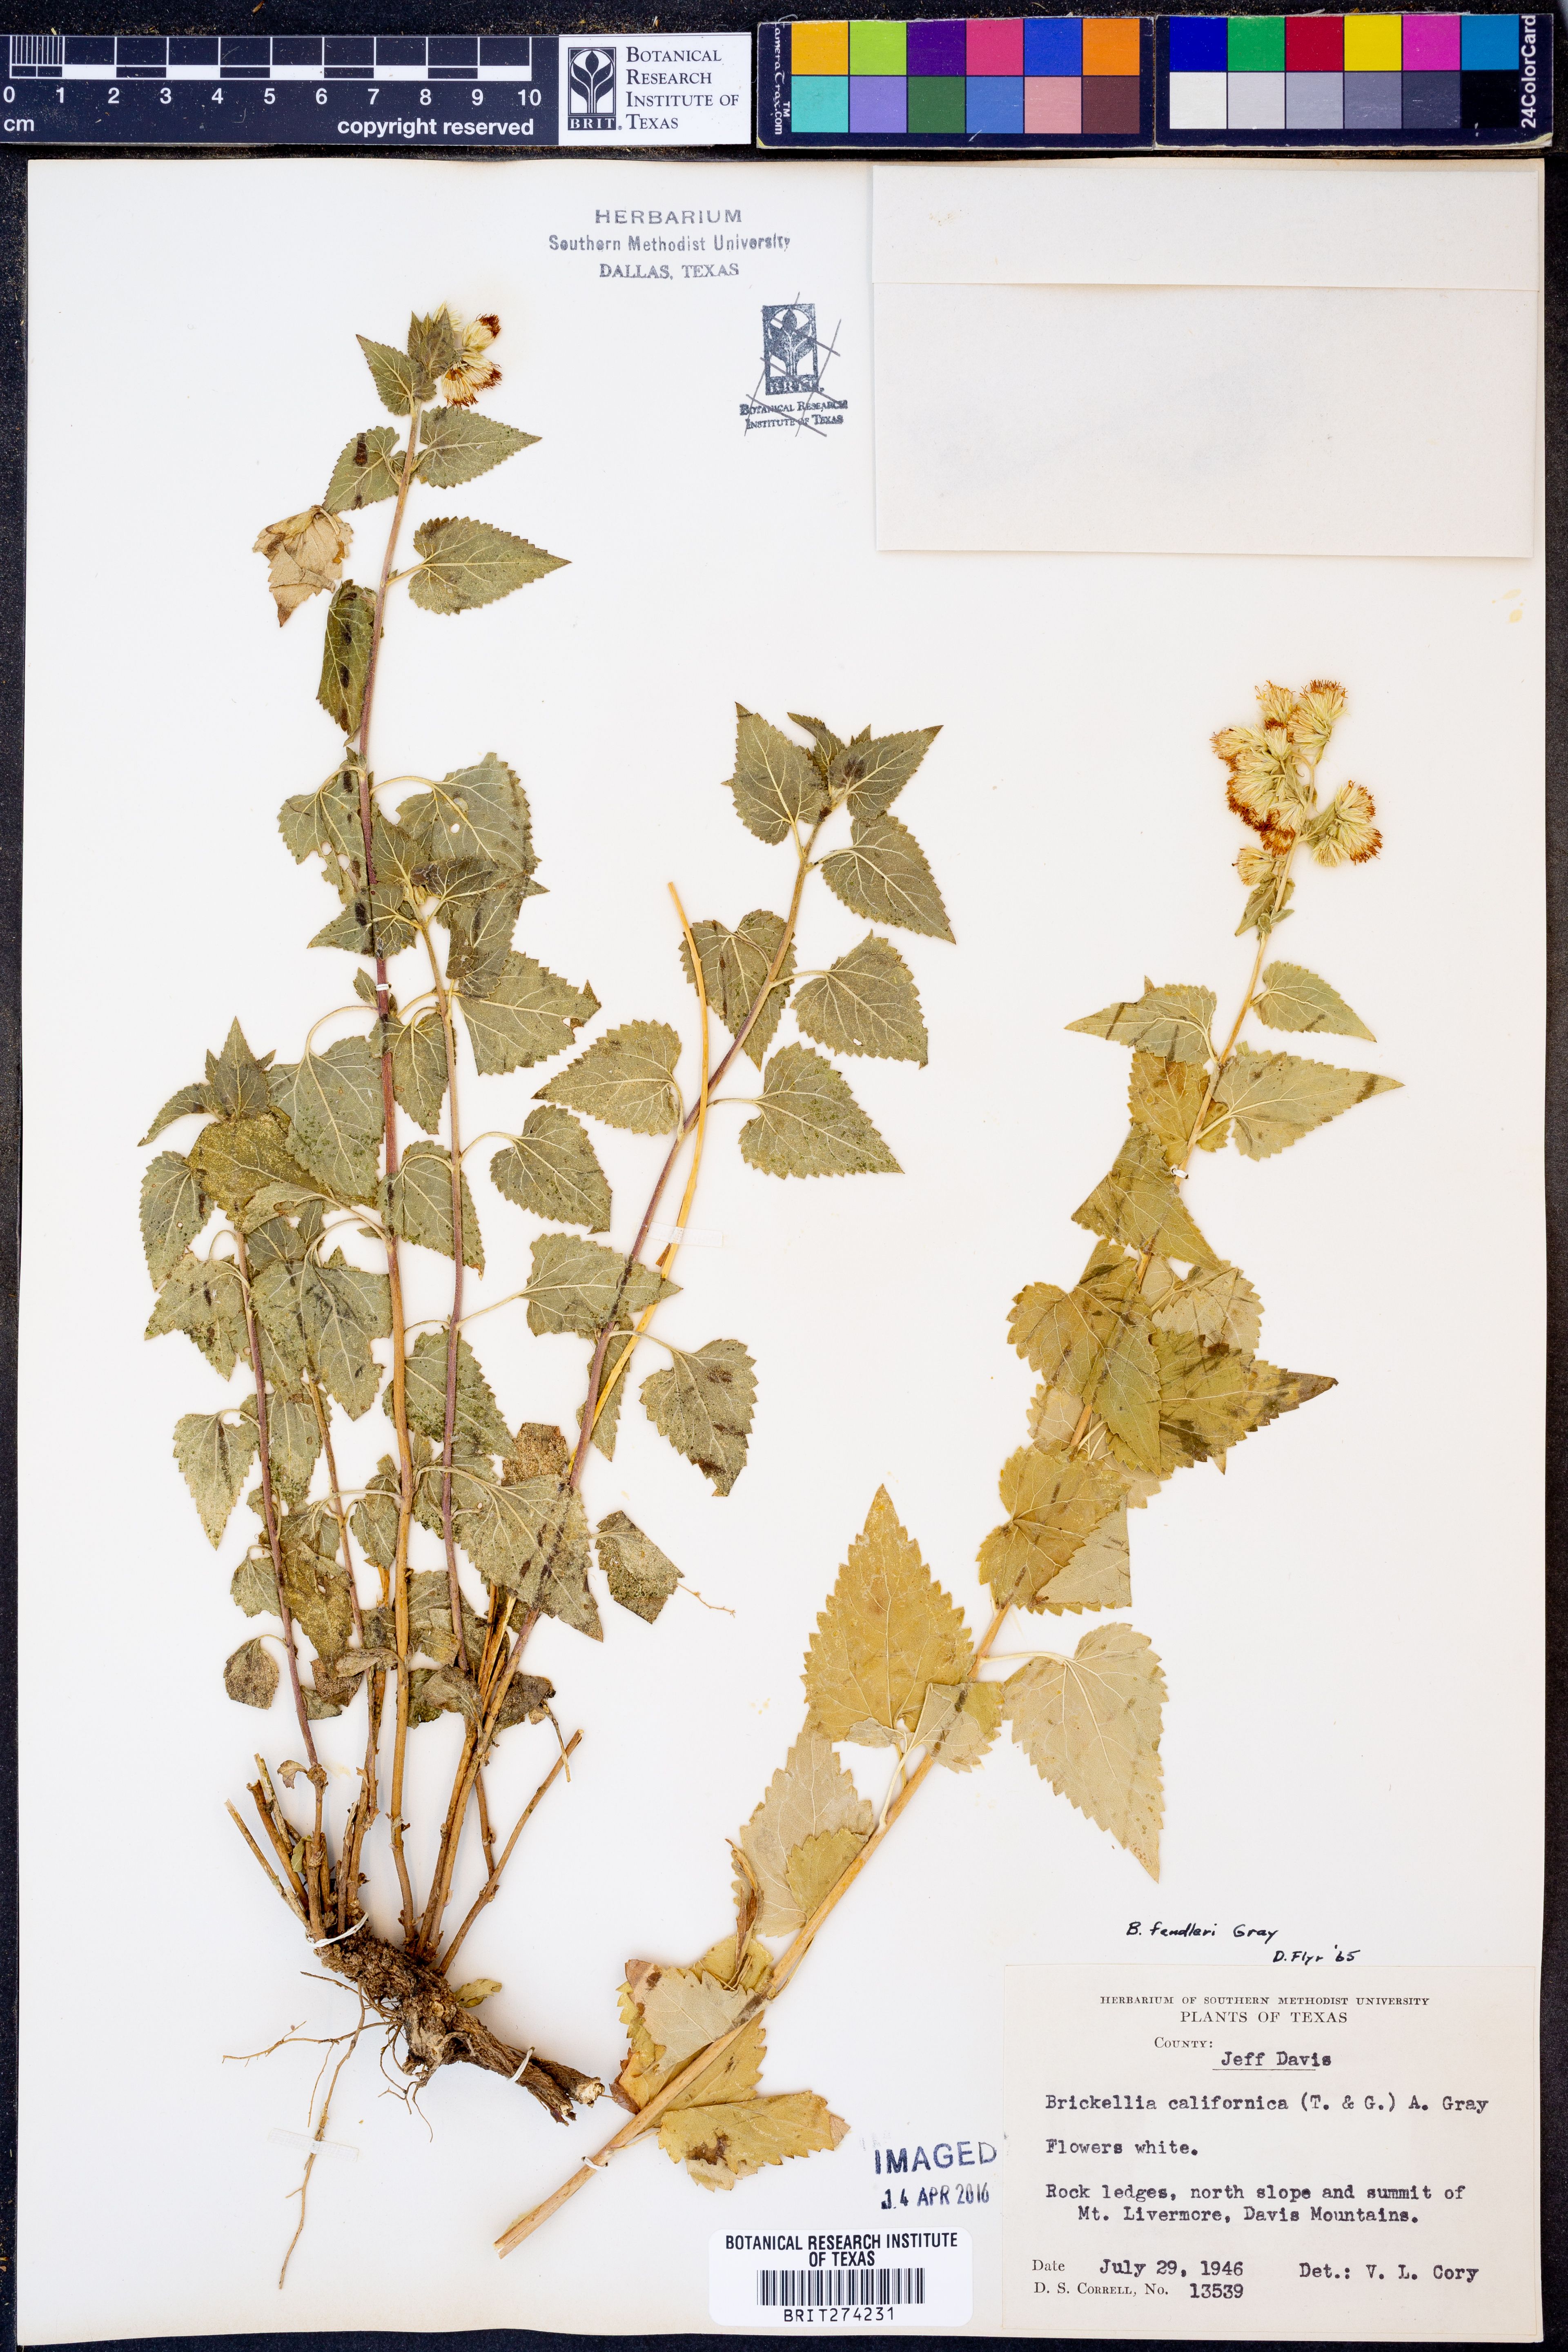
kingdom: Plantae
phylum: Tracheophyta
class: Magnoliopsida
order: Asterales
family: Asteraceae
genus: Brickelliastrum
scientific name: Brickelliastrum fendleri
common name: Fendler's-brickellbush
